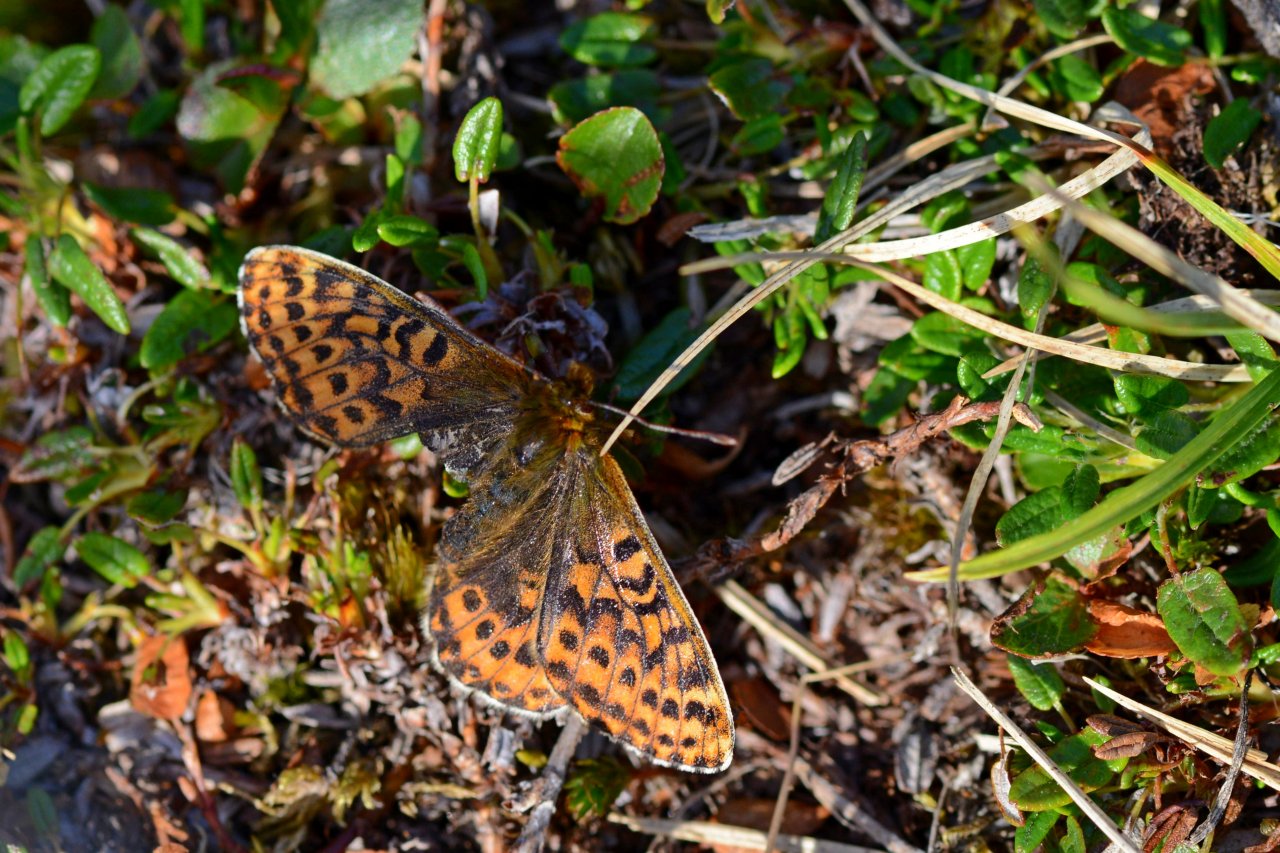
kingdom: Animalia
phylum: Arthropoda
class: Insecta
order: Lepidoptera
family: Nymphalidae
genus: Clossiana
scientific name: Clossiana polaris
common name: Polaris Fritillary
